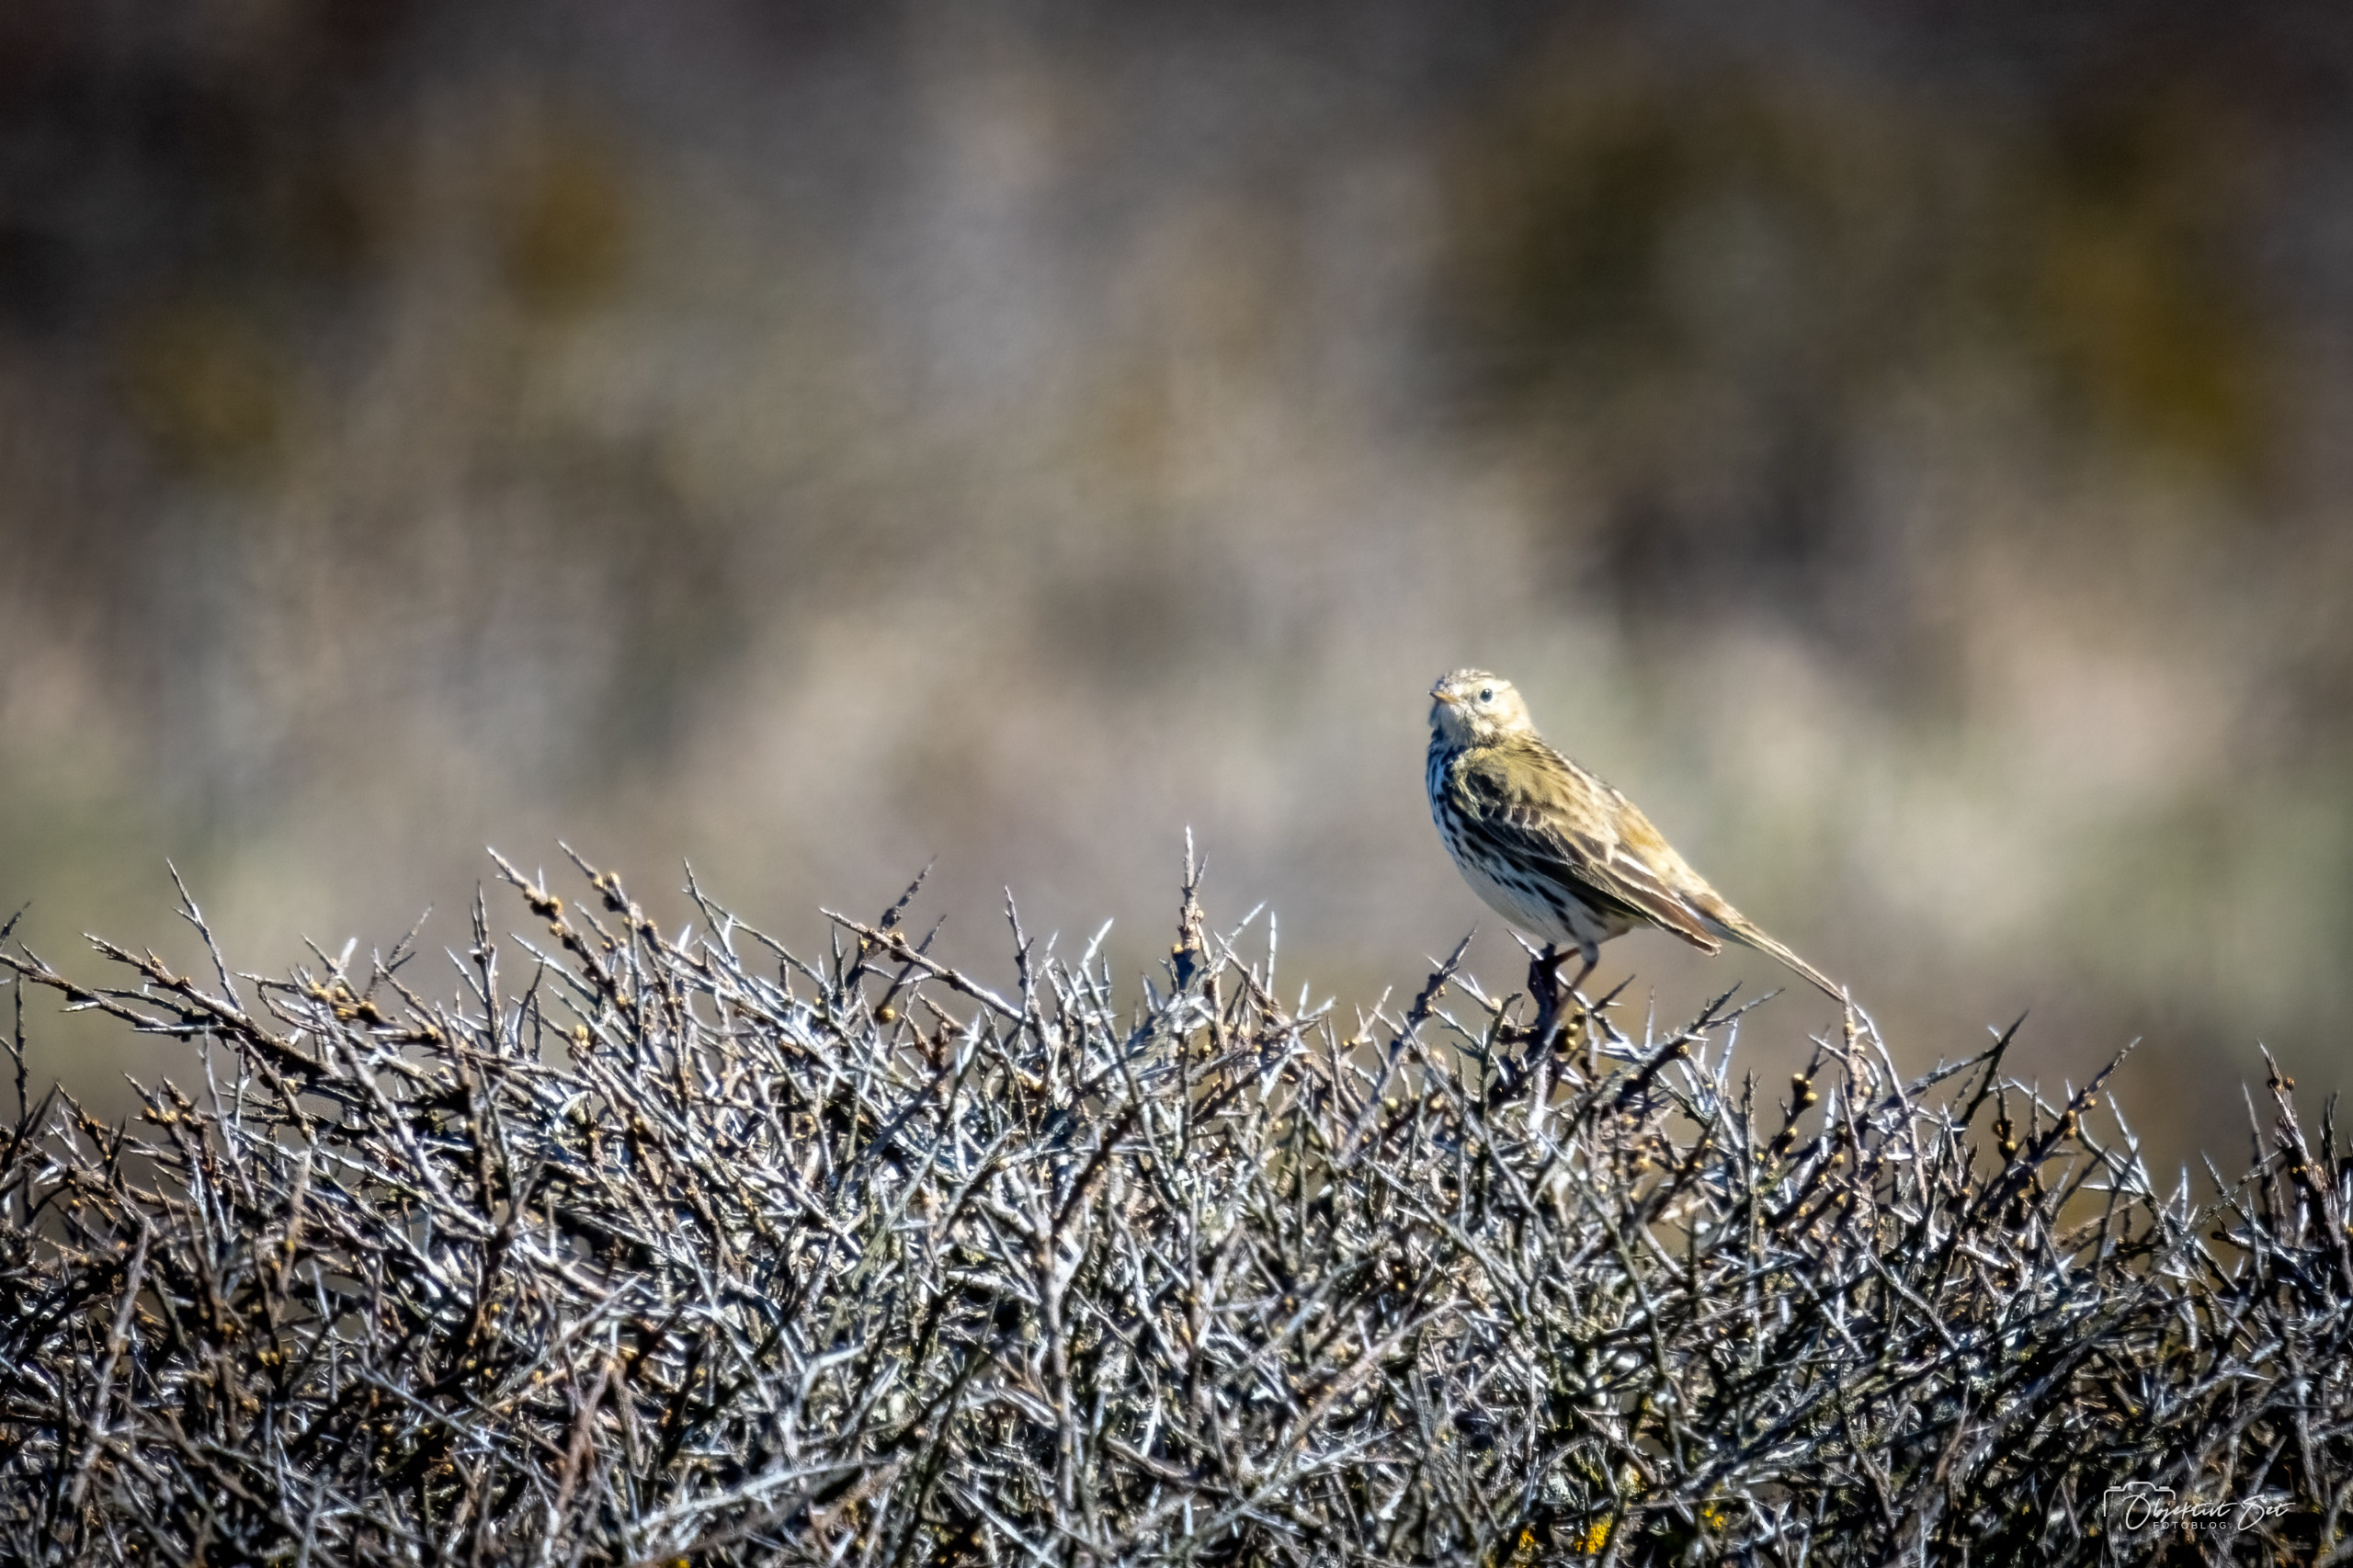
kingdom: Animalia
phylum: Chordata
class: Aves
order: Passeriformes
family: Motacillidae
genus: Anthus
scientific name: Anthus pratensis
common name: Engpiber
